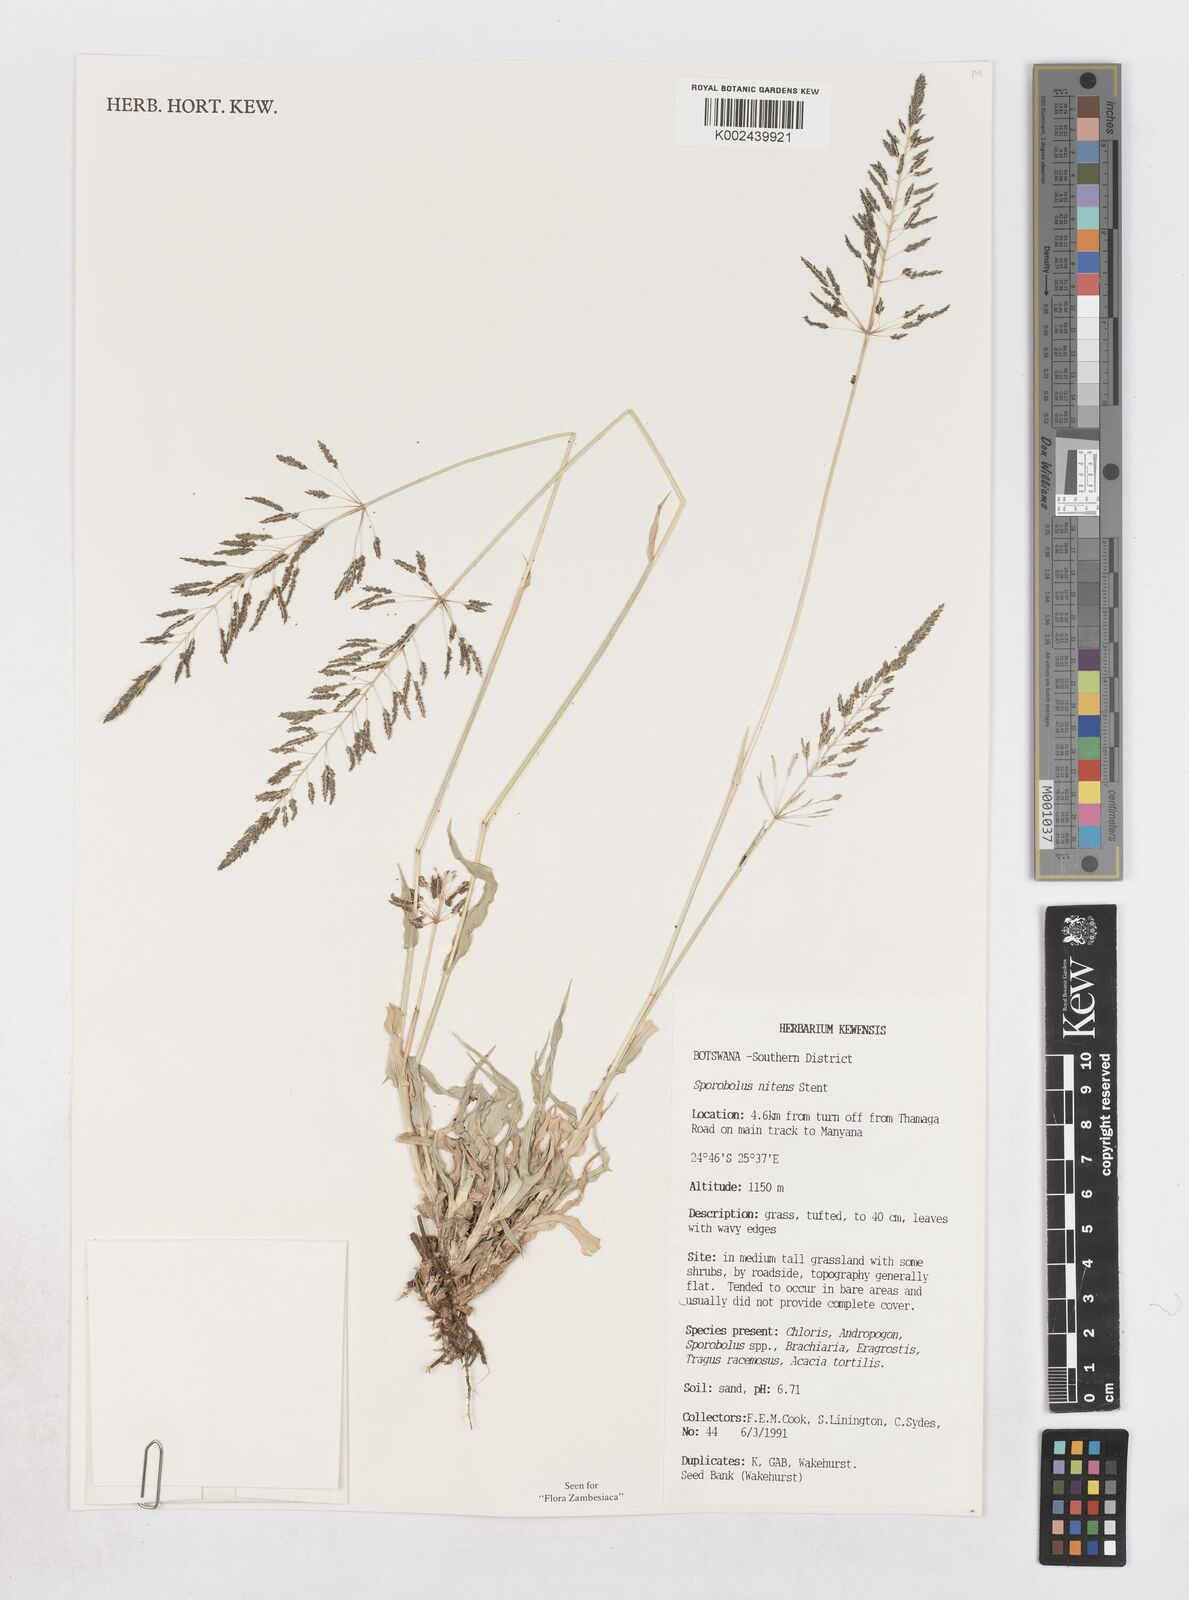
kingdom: Plantae
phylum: Tracheophyta
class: Liliopsida
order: Poales
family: Poaceae
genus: Sporobolus
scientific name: Sporobolus nitens
